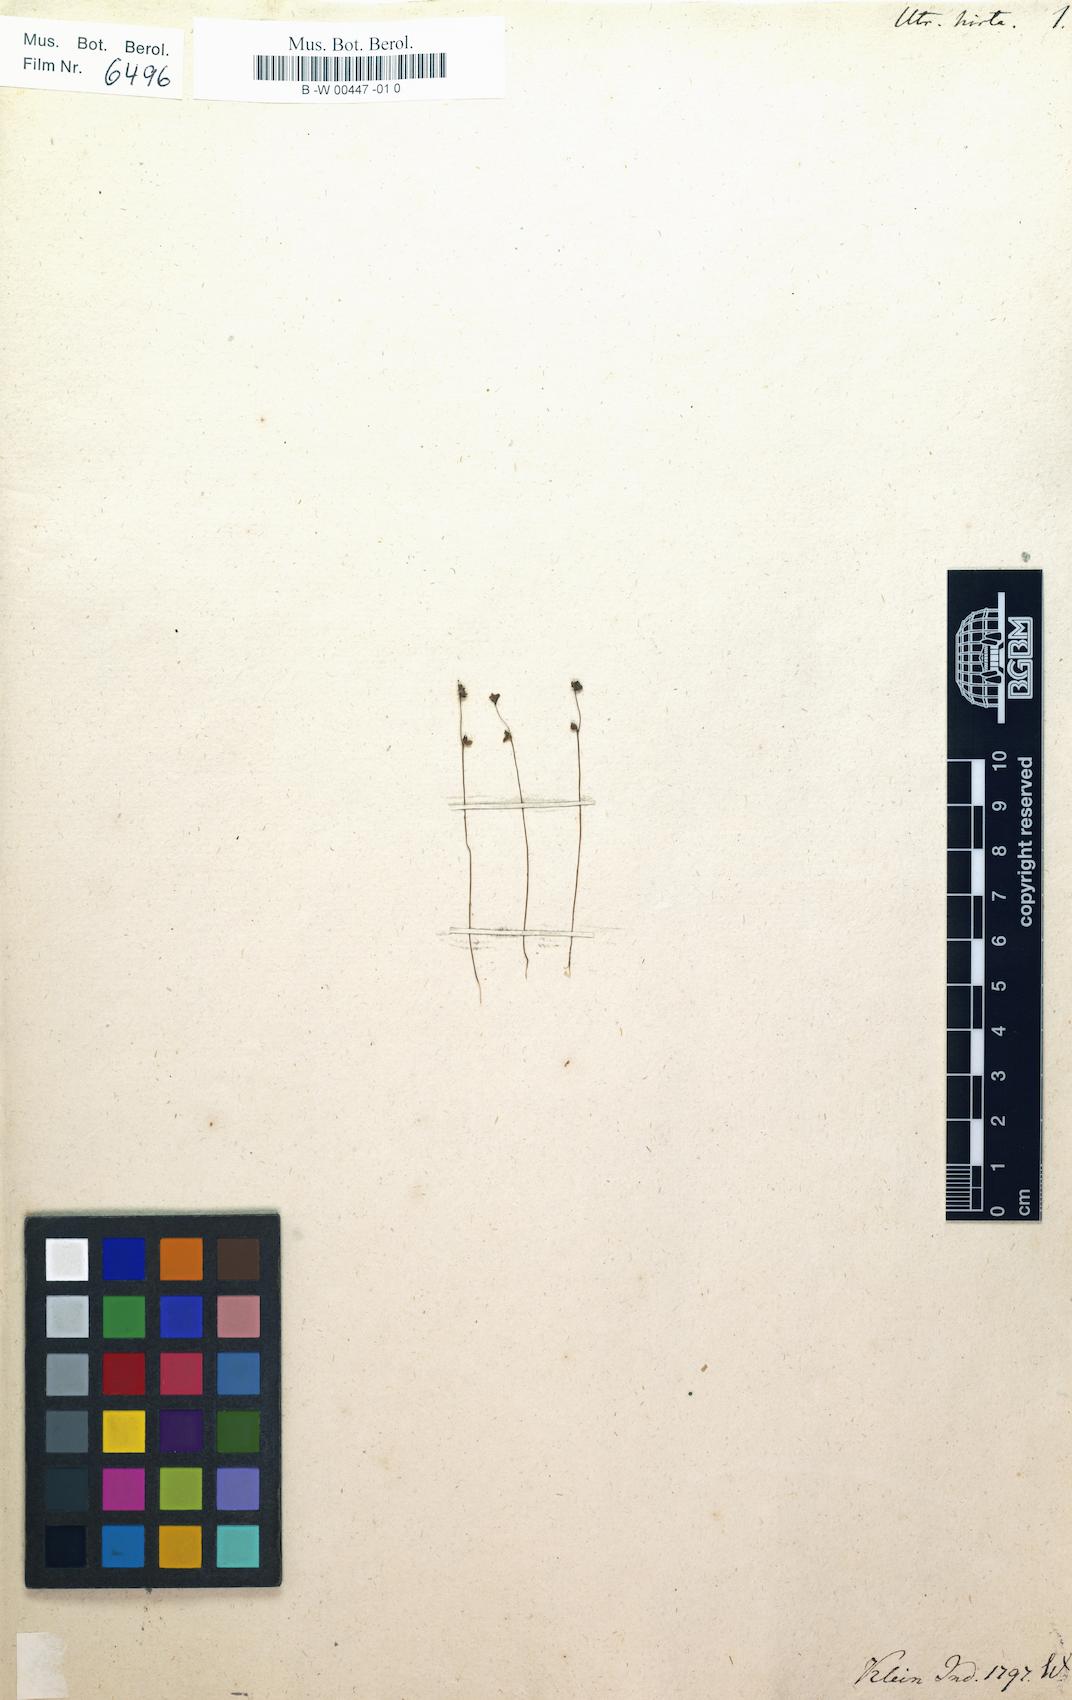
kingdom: Plantae
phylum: Tracheophyta
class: Magnoliopsida
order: Lamiales
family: Lentibulariaceae
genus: Utricularia
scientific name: Utricularia hirta
